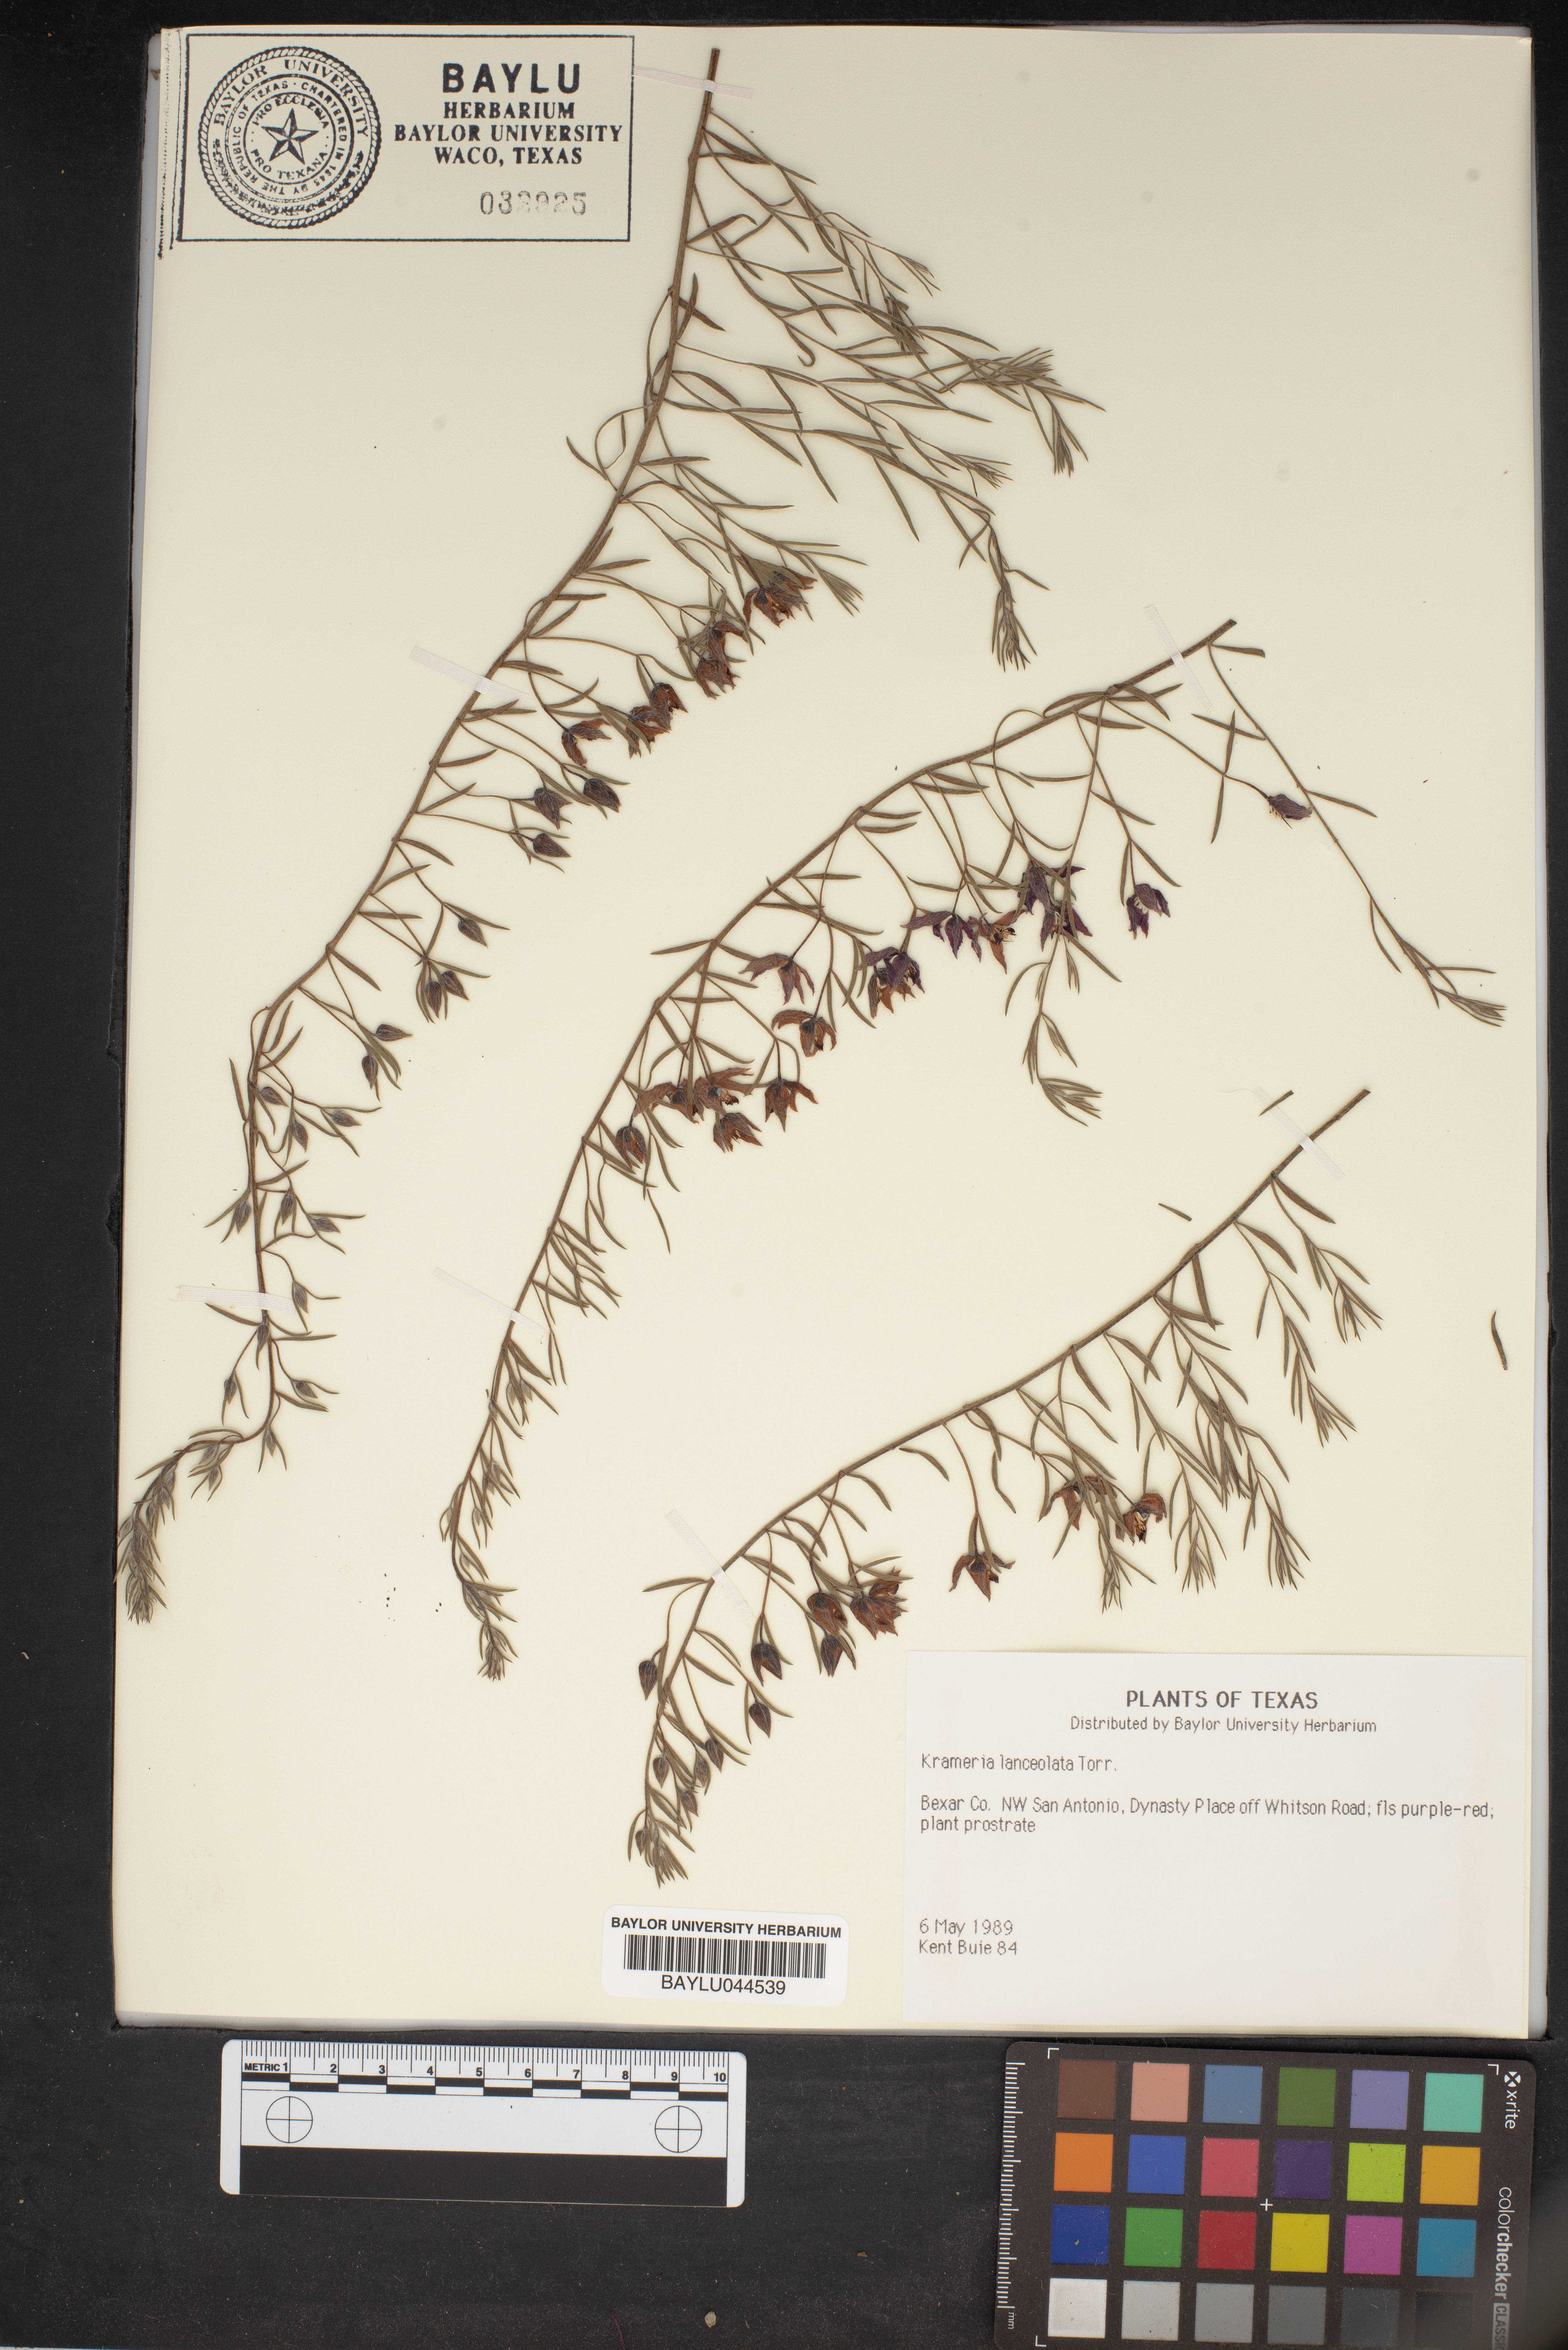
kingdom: Plantae
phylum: Tracheophyta
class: Magnoliopsida
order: Zygophyllales
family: Krameriaceae
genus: Krameria
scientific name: Krameria lanceolata
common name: Ratany
